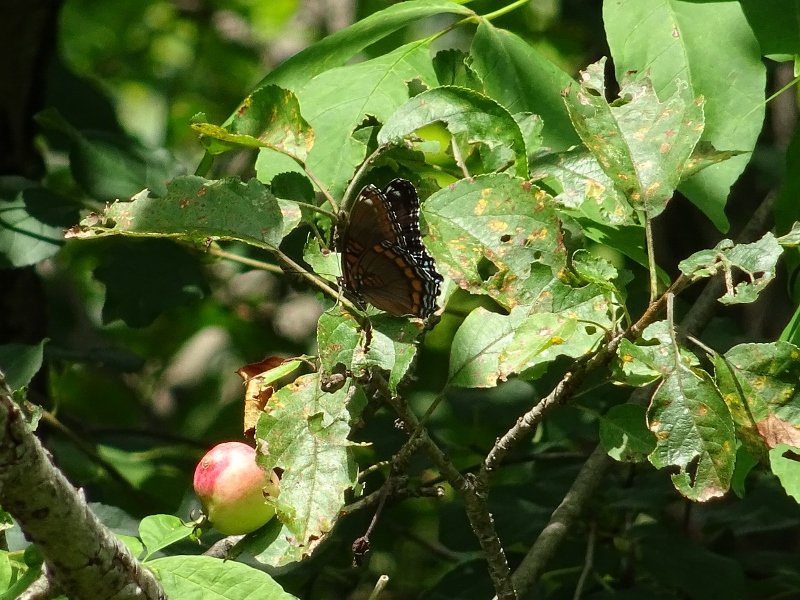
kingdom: Animalia
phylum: Arthropoda
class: Insecta
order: Lepidoptera
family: Nymphalidae
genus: Limenitis
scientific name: Limenitis astyanax
